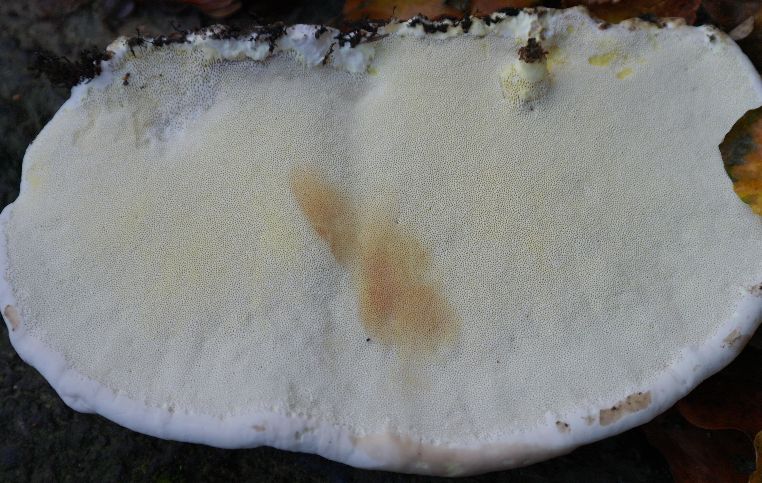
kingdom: Fungi
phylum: Basidiomycota
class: Agaricomycetes
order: Polyporales
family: Fomitopsidaceae
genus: Fomitopsis
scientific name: Fomitopsis pinicola
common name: randbæltet hovporesvamp
